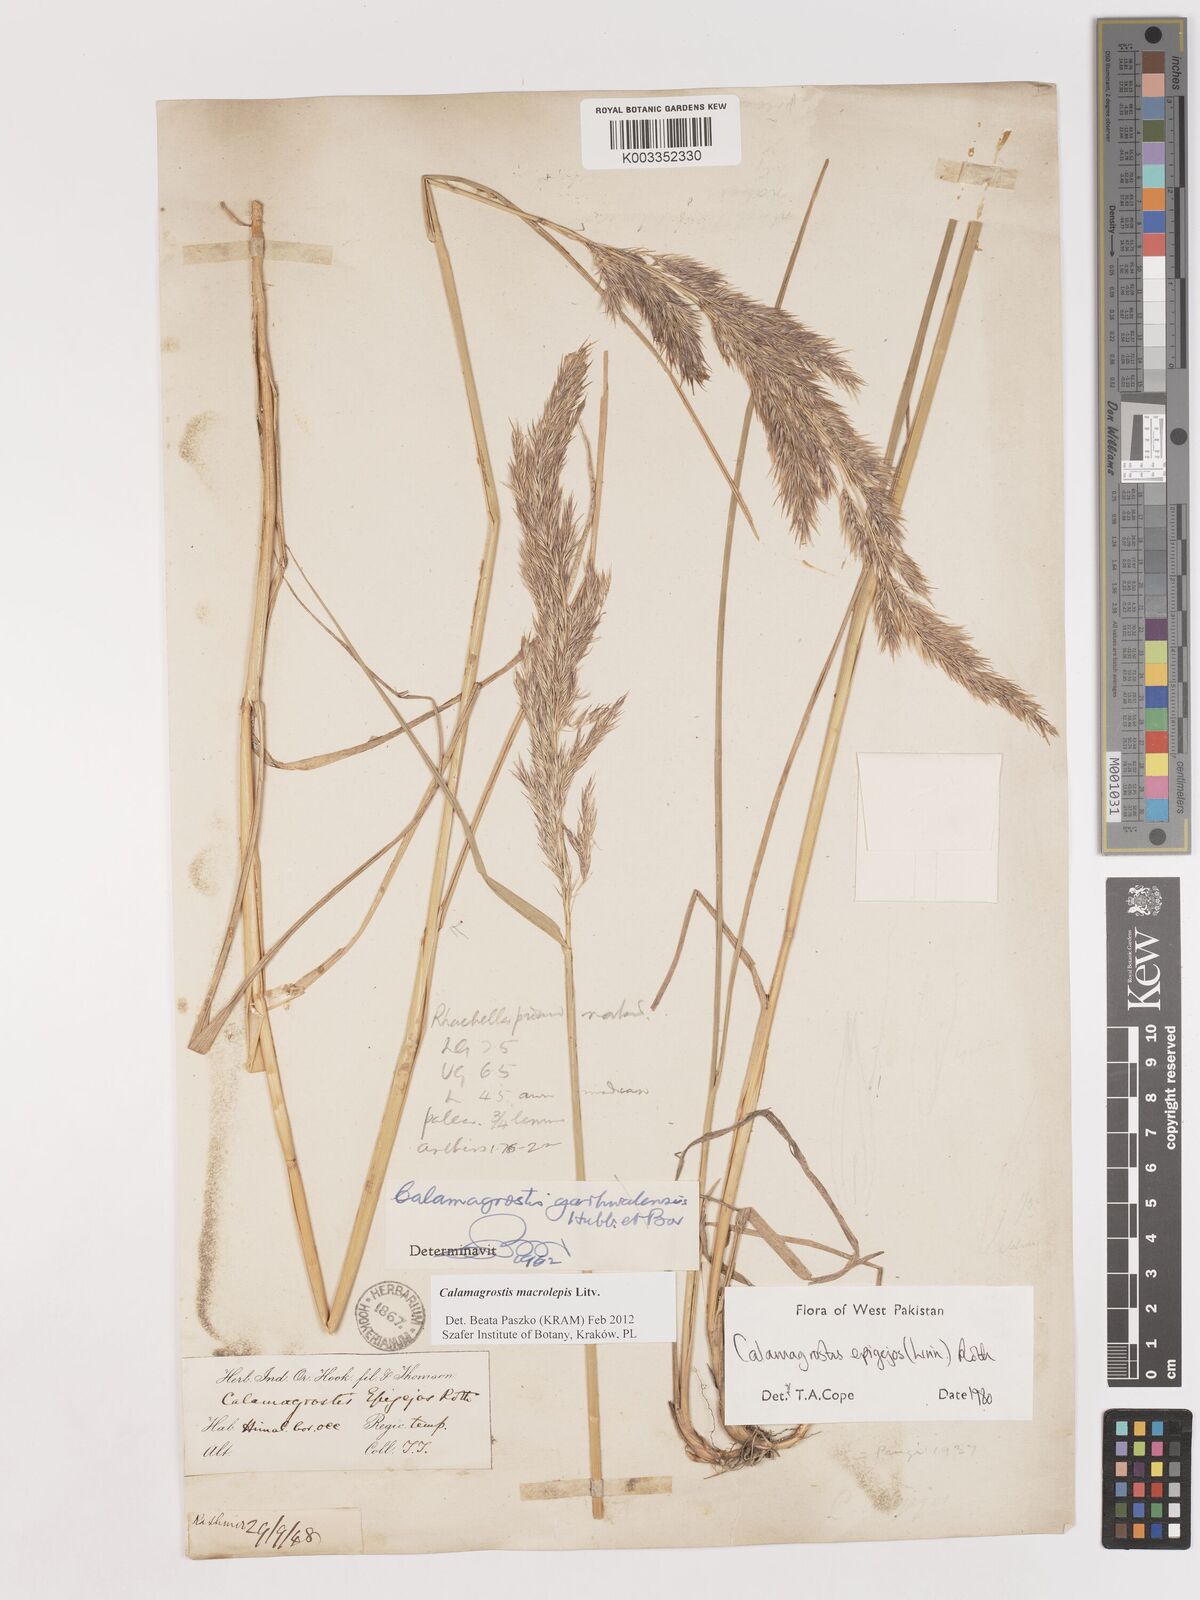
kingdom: Plantae
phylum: Tracheophyta
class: Liliopsida
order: Poales
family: Poaceae
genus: Calamagrostis
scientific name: Calamagrostis epigejos
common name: Wood small-reed
